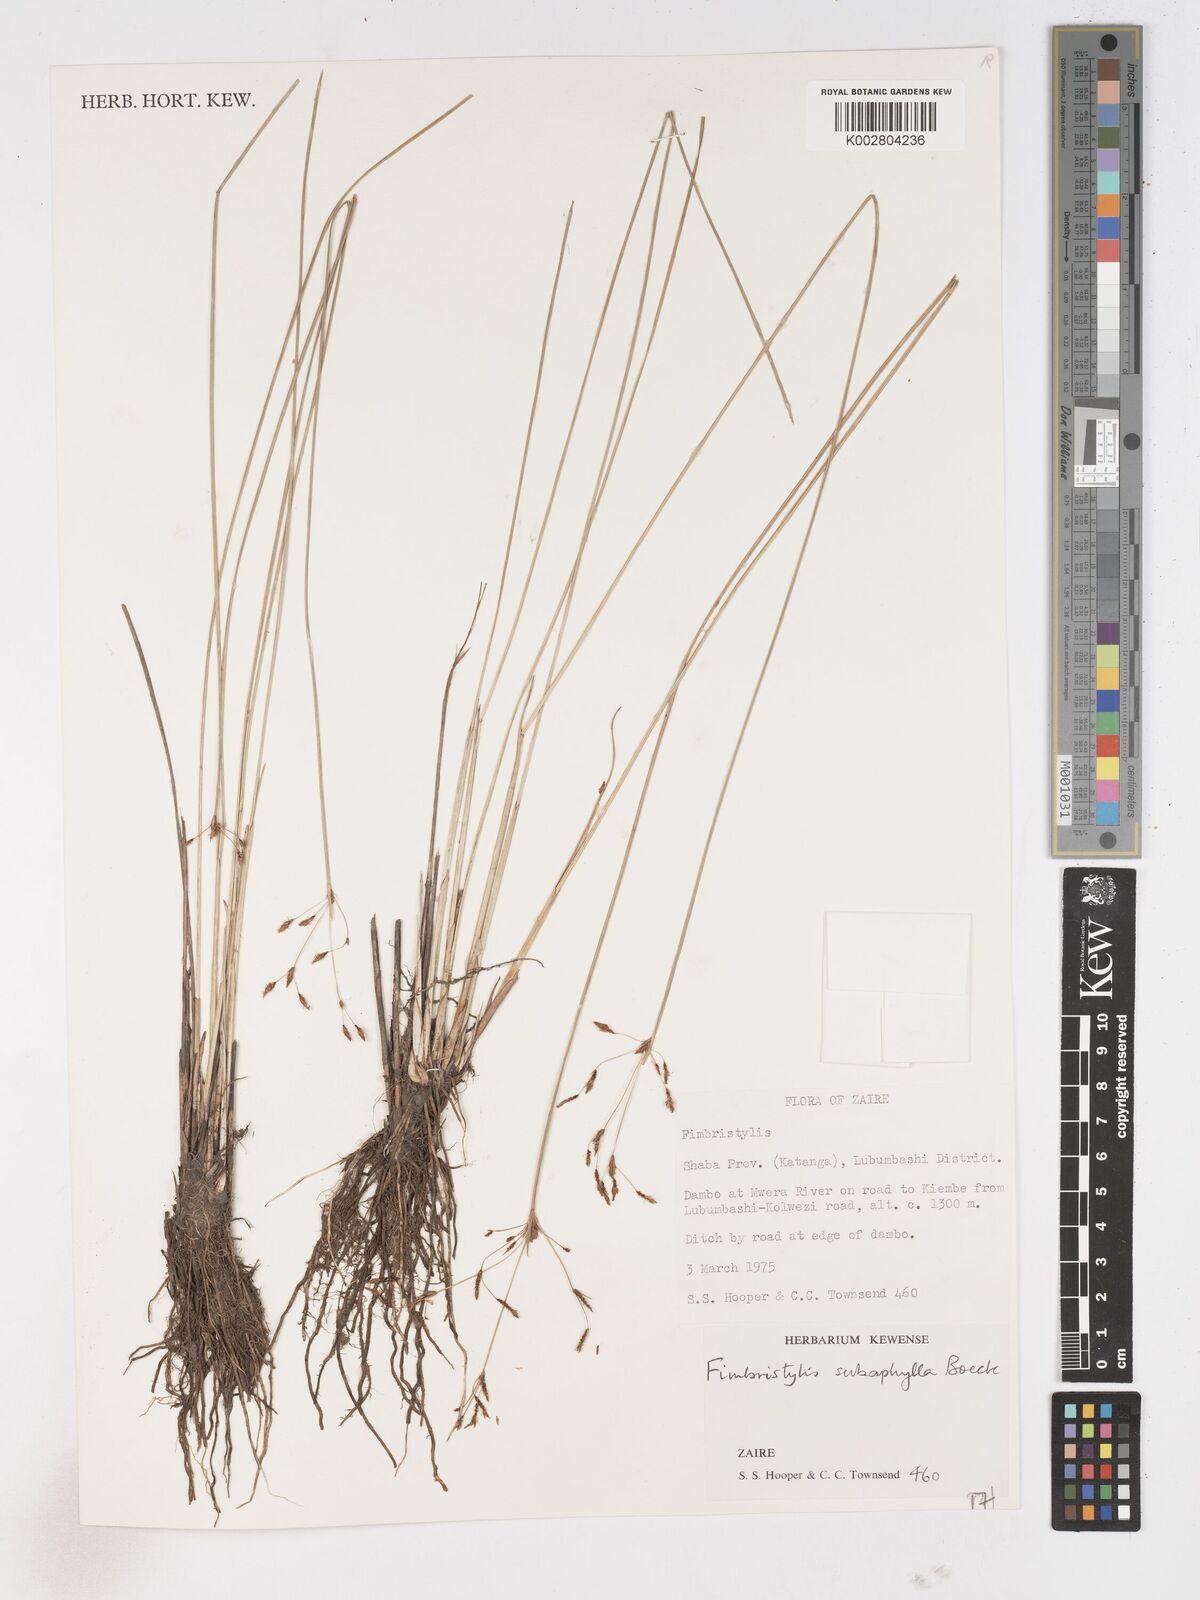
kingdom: Plantae
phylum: Tracheophyta
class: Liliopsida
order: Poales
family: Cyperaceae
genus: Fimbristylis
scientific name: Fimbristylis subaphylla
